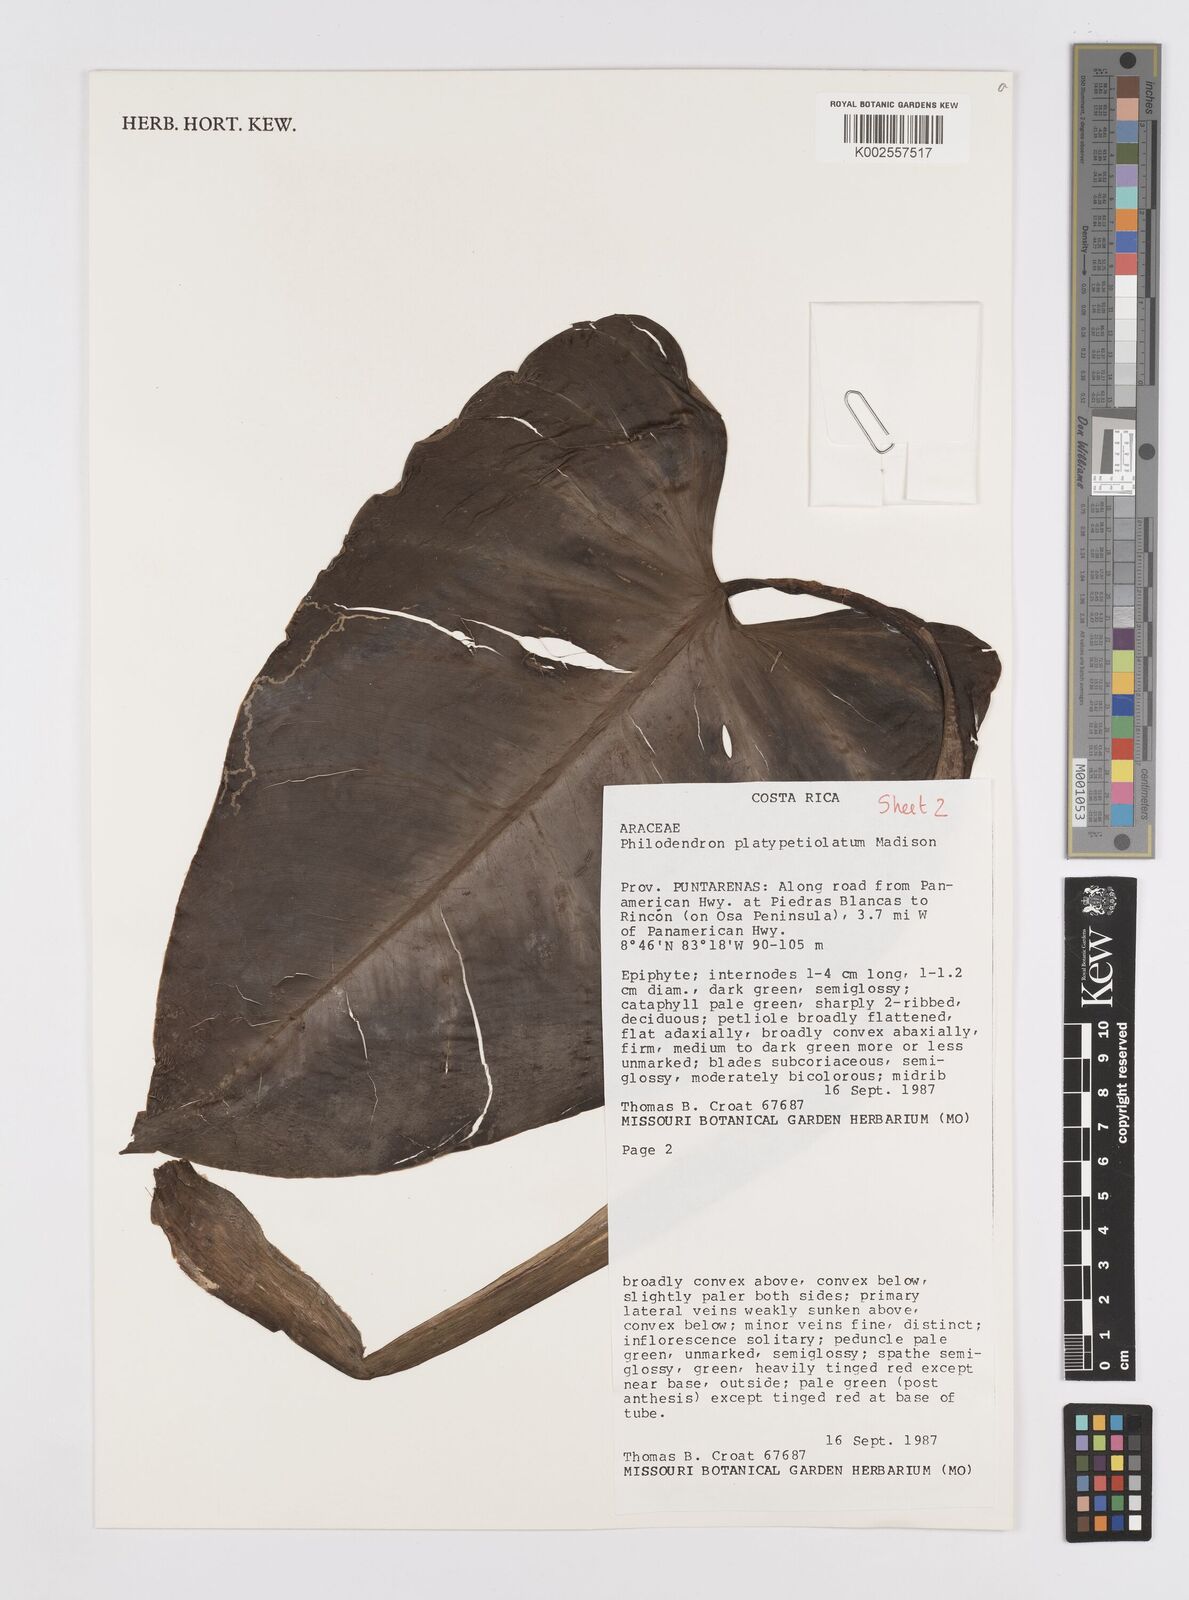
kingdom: Plantae
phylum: Tracheophyta
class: Liliopsida
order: Alismatales
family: Araceae
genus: Philodendron
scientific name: Philodendron platypetiolatum
